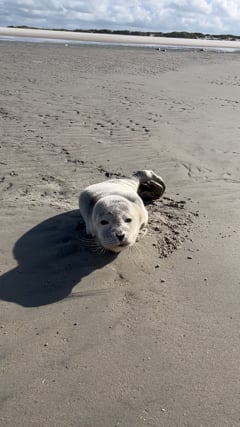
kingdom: Animalia
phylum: Chordata
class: Mammalia
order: Carnivora
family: Phocidae
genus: Phoca
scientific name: Phoca vitulina
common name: Harbor seal
